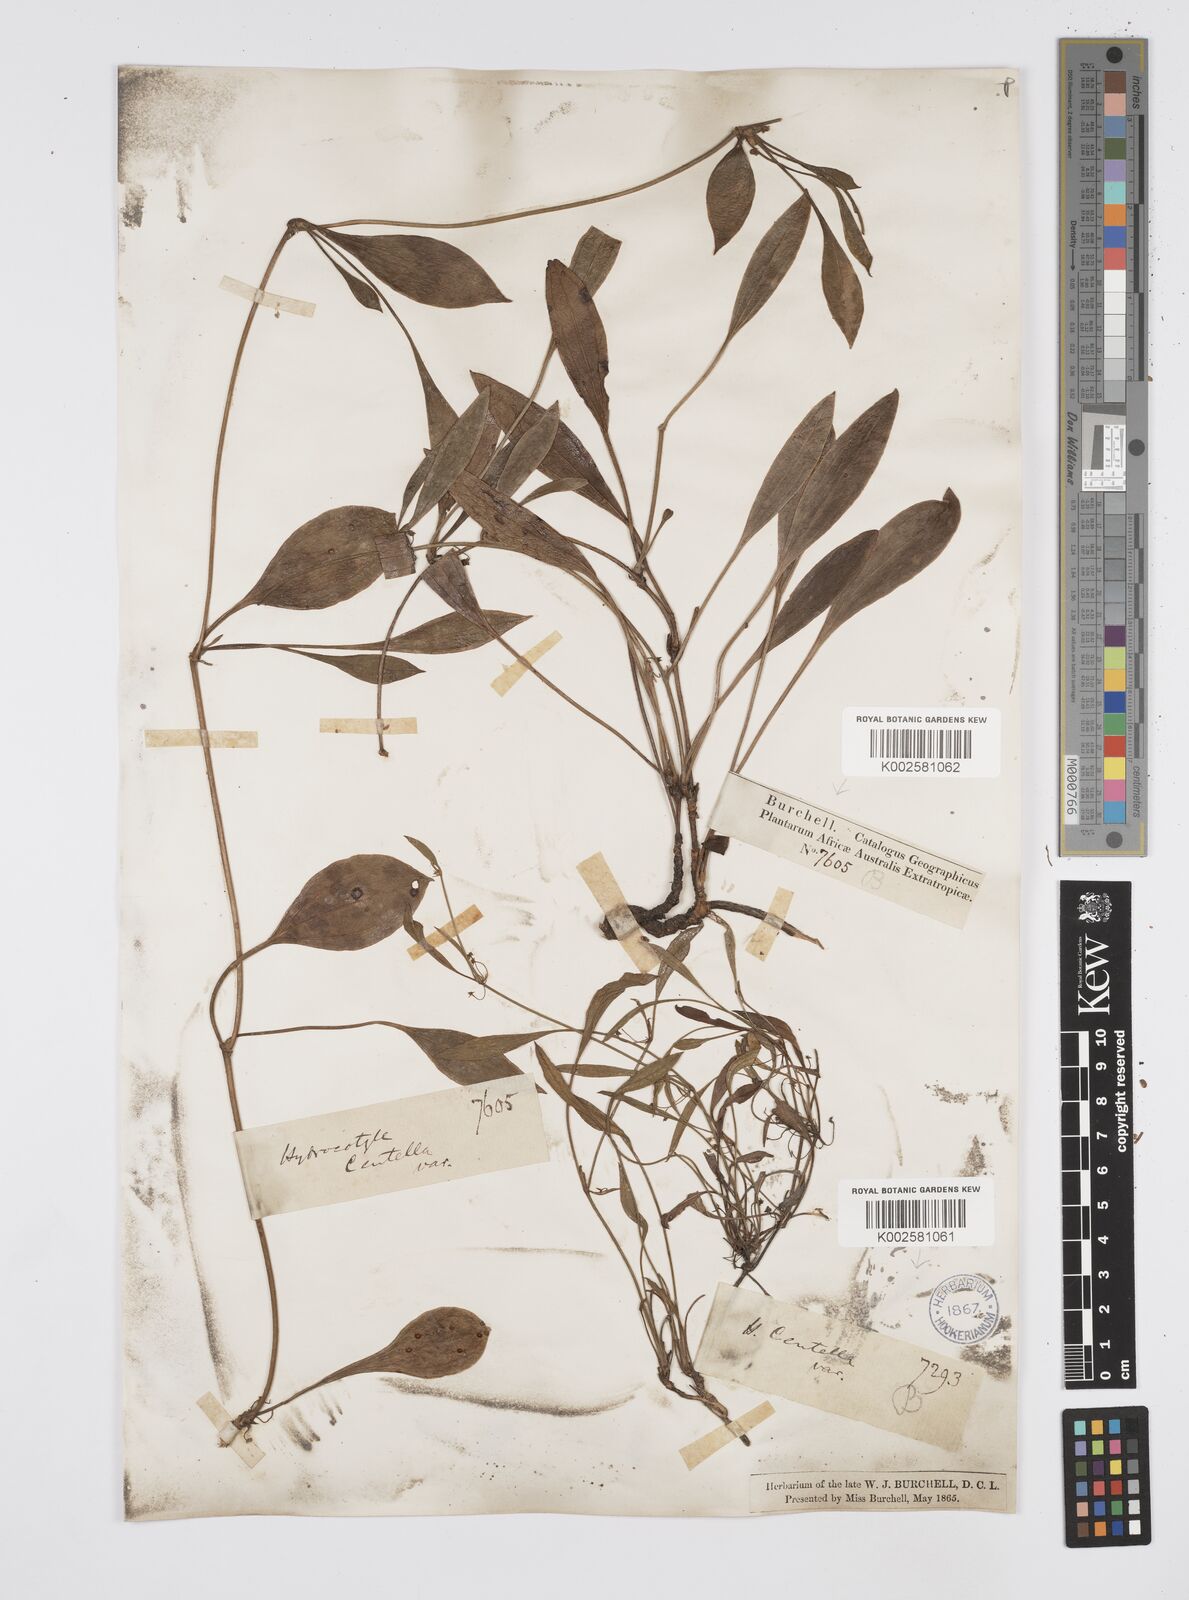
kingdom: Plantae
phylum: Tracheophyta
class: Magnoliopsida
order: Apiales
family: Apiaceae
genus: Centella
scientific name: Centella glabrata
